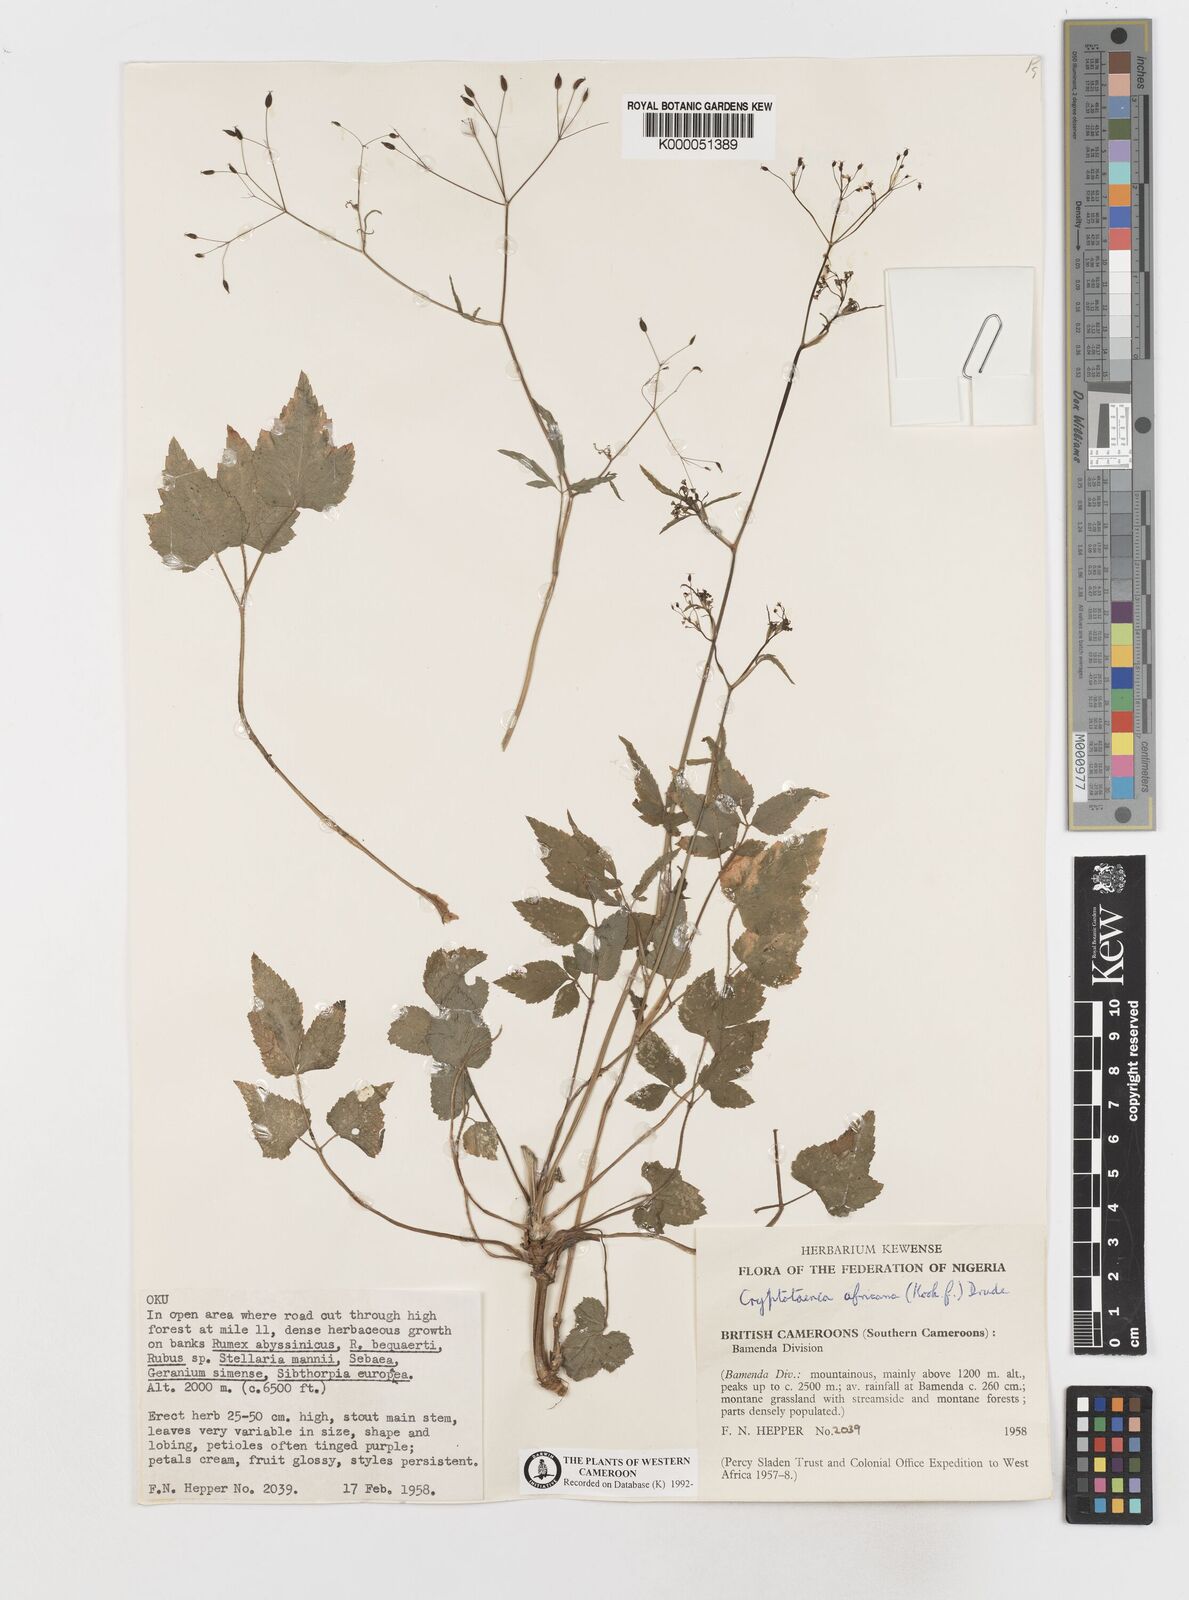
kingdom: Plantae
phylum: Tracheophyta
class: Magnoliopsida
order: Apiales
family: Apiaceae
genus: Cryptotaenia
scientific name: Cryptotaenia africana
